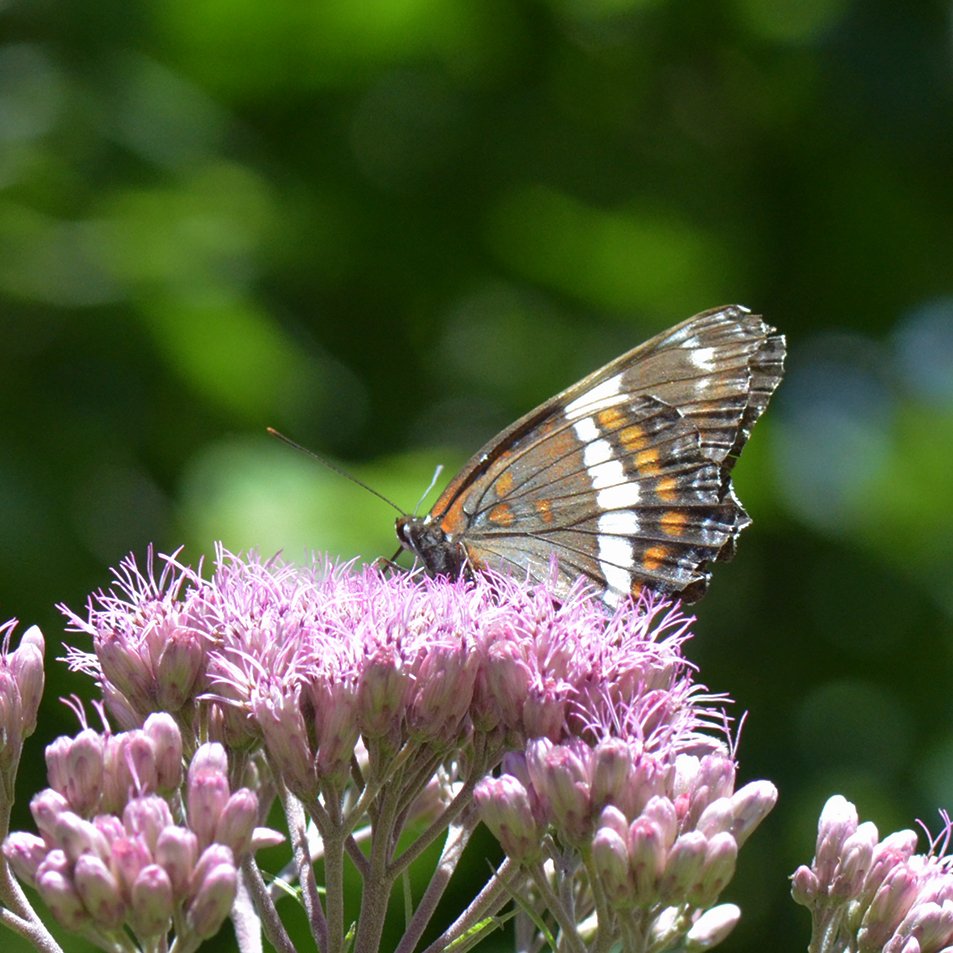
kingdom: Animalia
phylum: Arthropoda
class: Insecta
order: Lepidoptera
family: Nymphalidae
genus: Limenitis
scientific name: Limenitis arthemis
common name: Red-spotted Admiral
